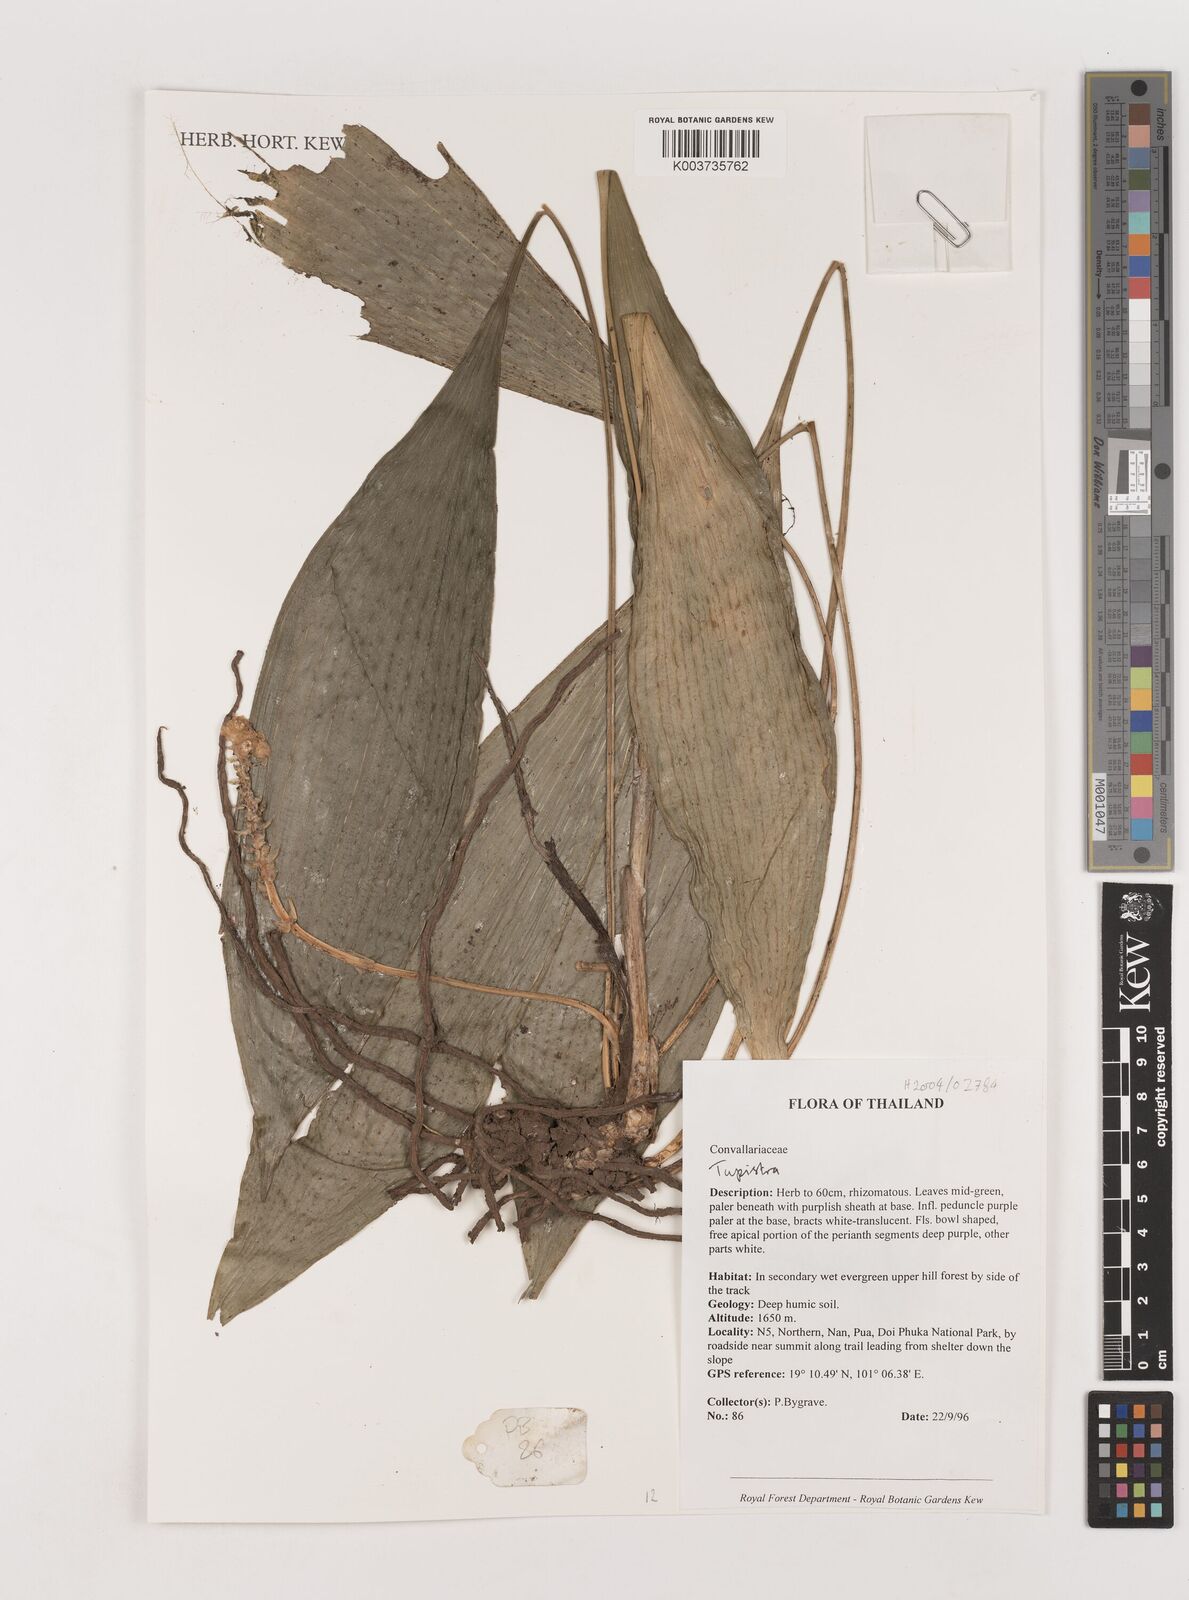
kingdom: Plantae
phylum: Tracheophyta
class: Liliopsida
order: Asparagales
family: Asparagaceae
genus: Tupistra
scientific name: Tupistra
